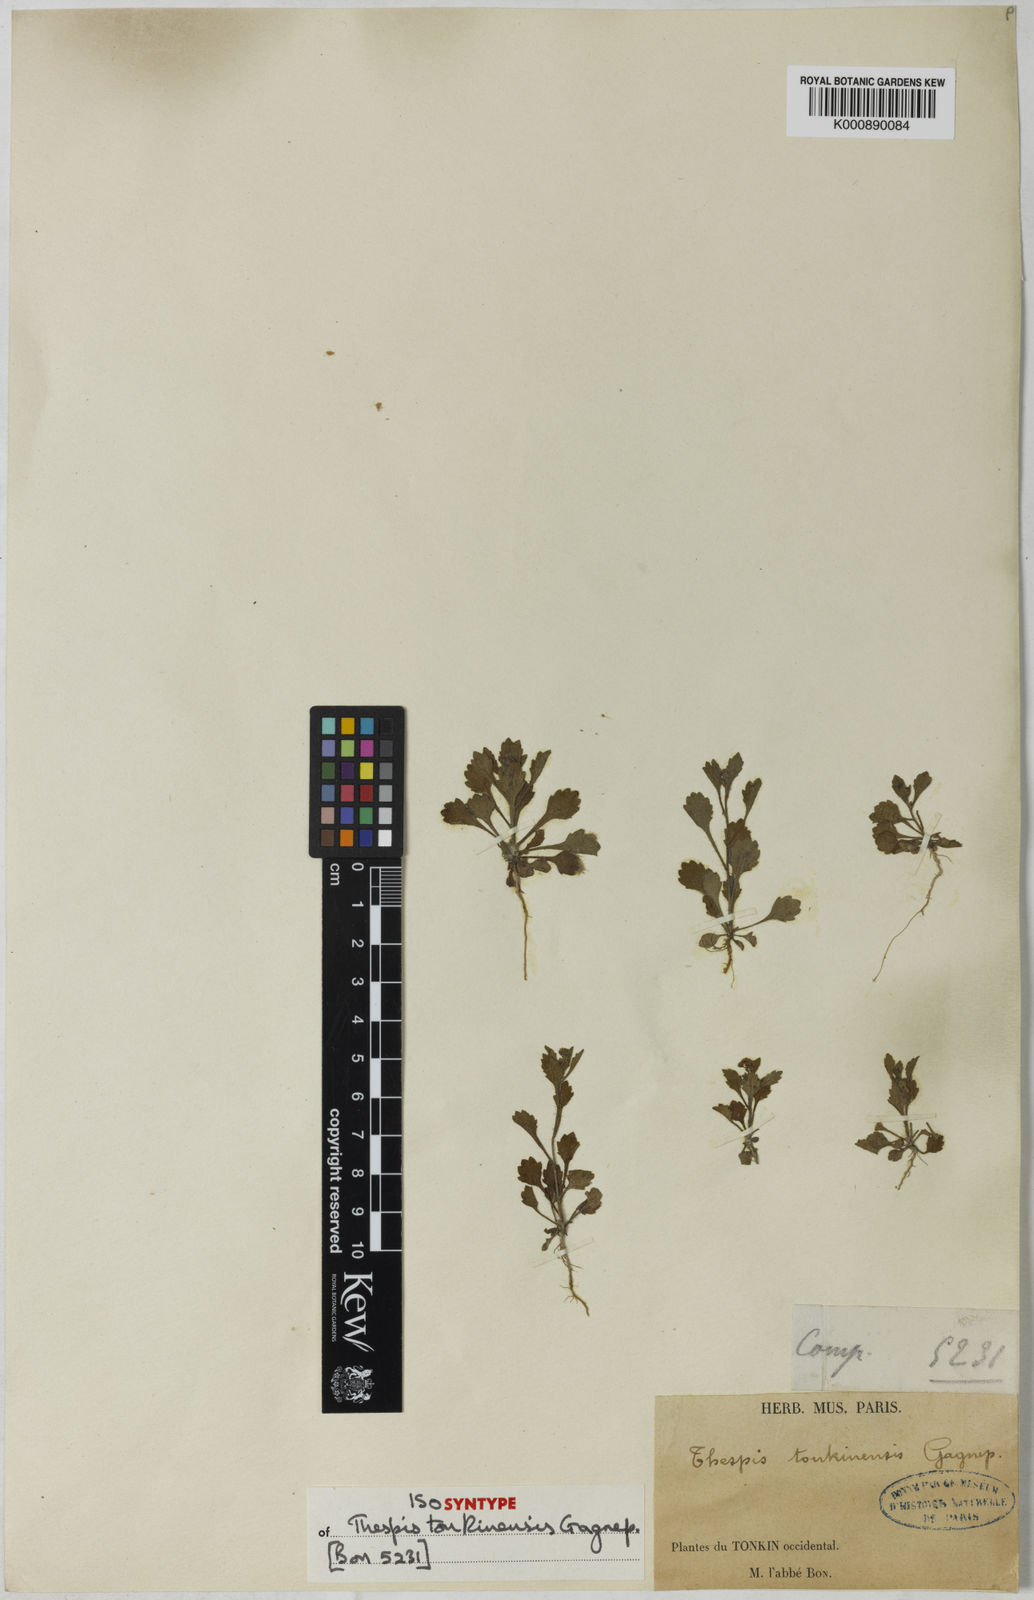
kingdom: Plantae
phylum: Tracheophyta
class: Magnoliopsida
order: Asterales
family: Asteraceae
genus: Thespis
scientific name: Thespis tonkinensis
